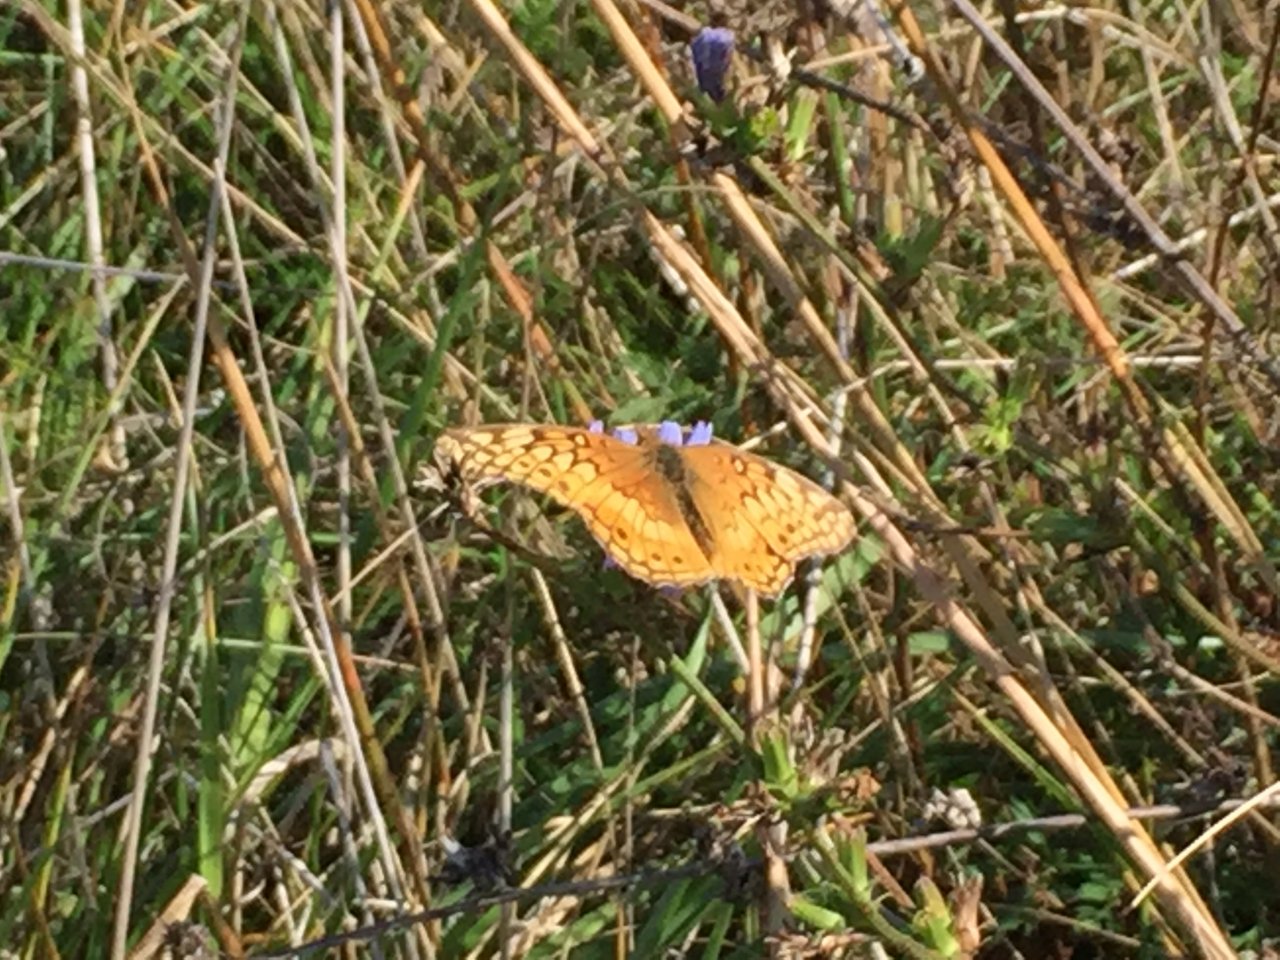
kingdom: Animalia
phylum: Arthropoda
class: Insecta
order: Lepidoptera
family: Nymphalidae
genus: Euptoieta
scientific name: Euptoieta claudia
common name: Variegated Fritillary
